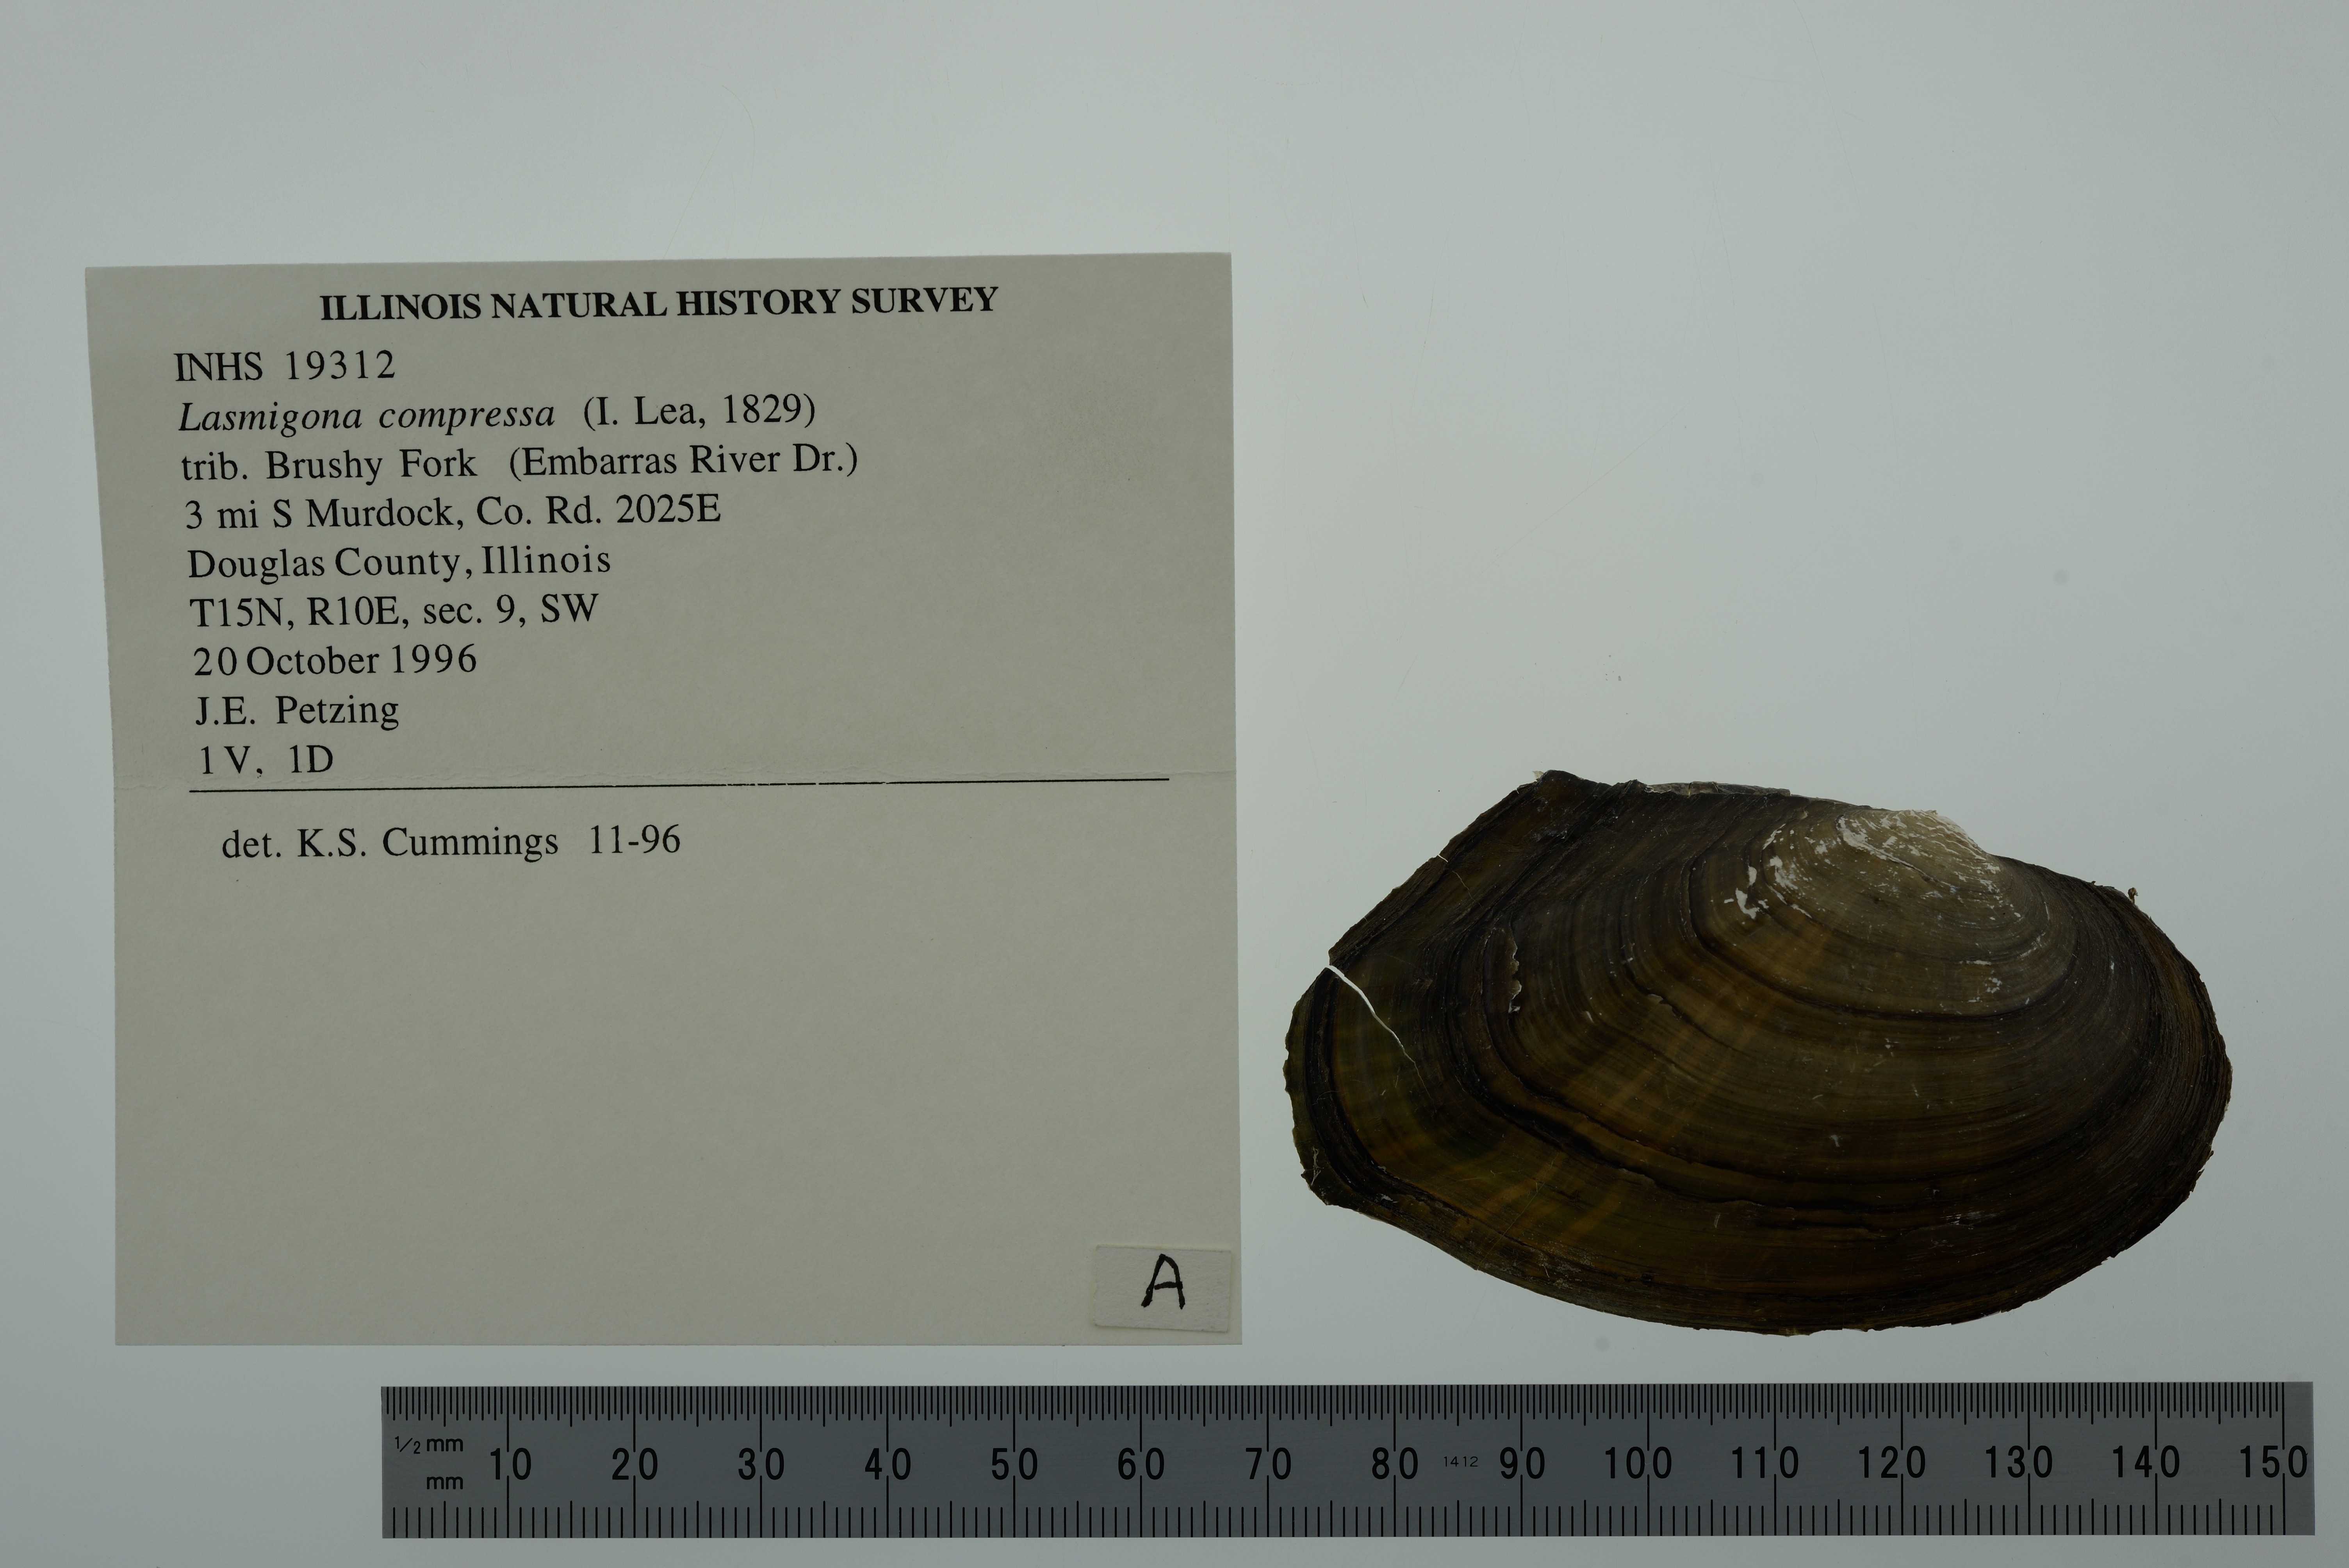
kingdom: Animalia
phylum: Mollusca
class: Bivalvia
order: Unionida
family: Unionidae
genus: Lasmigona
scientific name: Lasmigona compressa
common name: Creek heelsplitter
